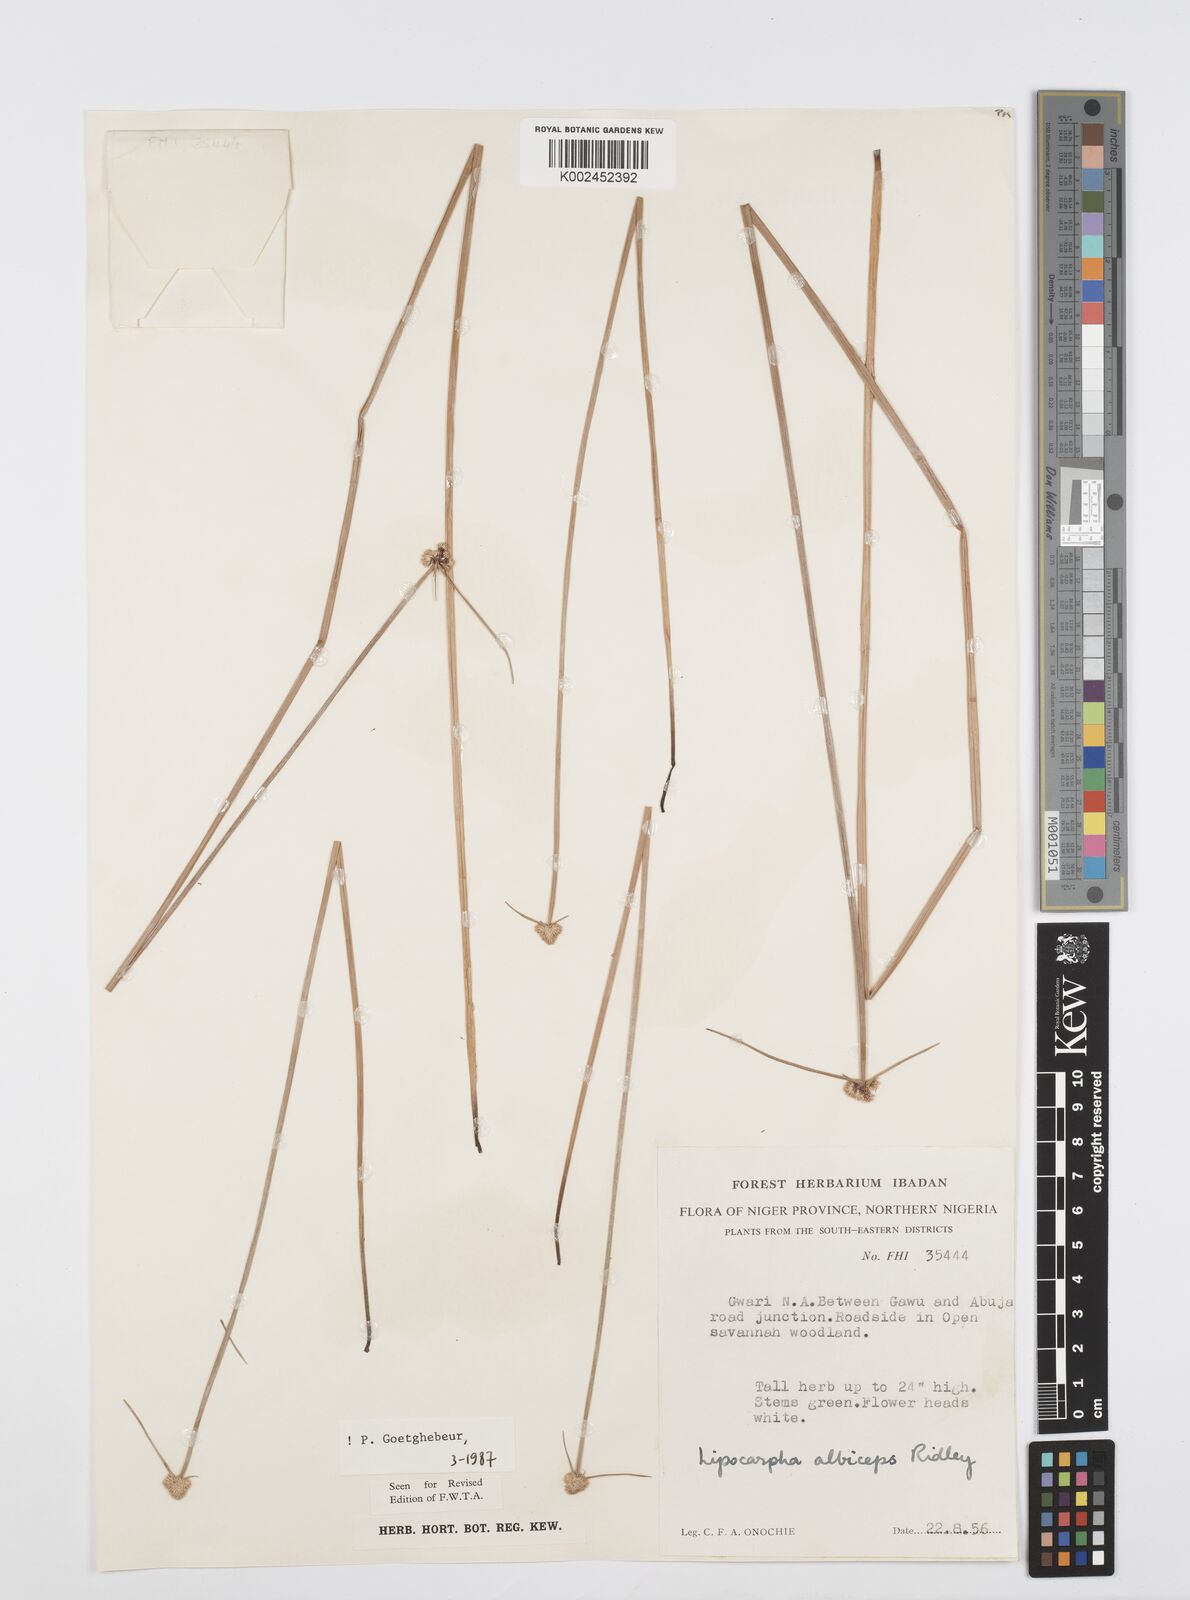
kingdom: Plantae
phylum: Tracheophyta
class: Liliopsida
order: Poales
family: Cyperaceae
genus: Cyperus
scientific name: Cyperus albiceps
